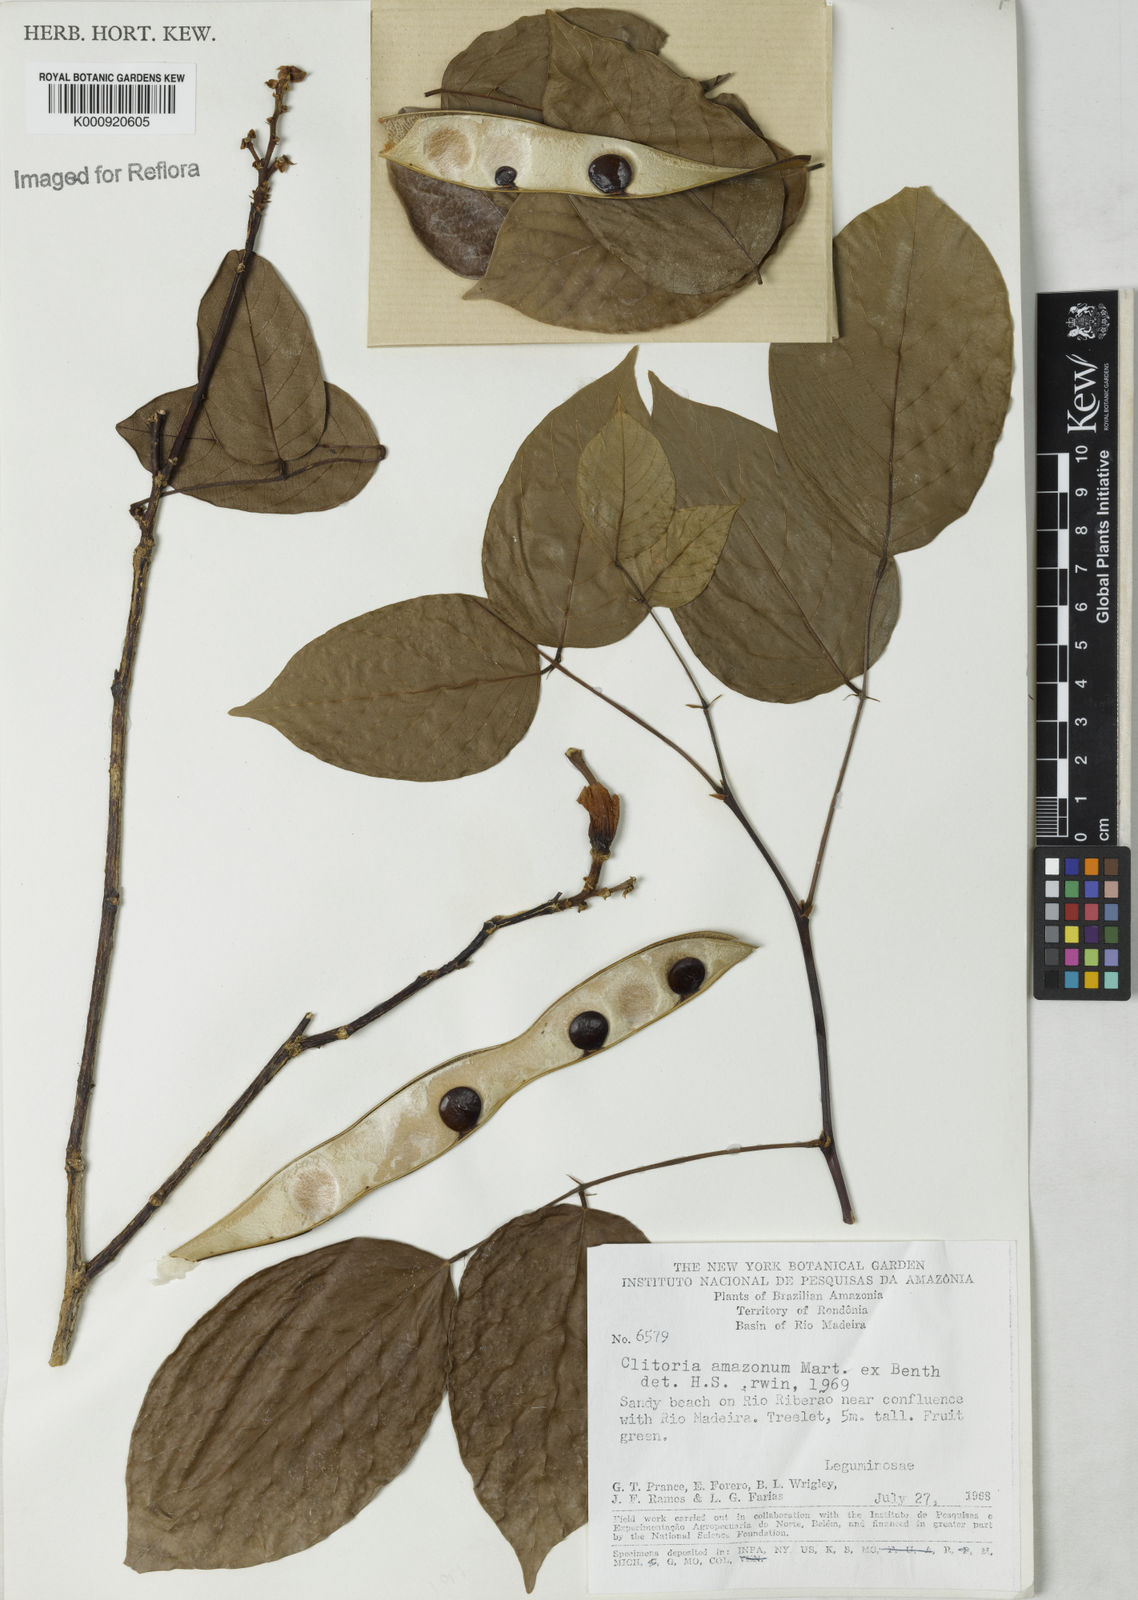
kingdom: Plantae
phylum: Tracheophyta
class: Magnoliopsida
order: Fabales
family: Fabaceae
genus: Clitoria
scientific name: Clitoria amazonum
